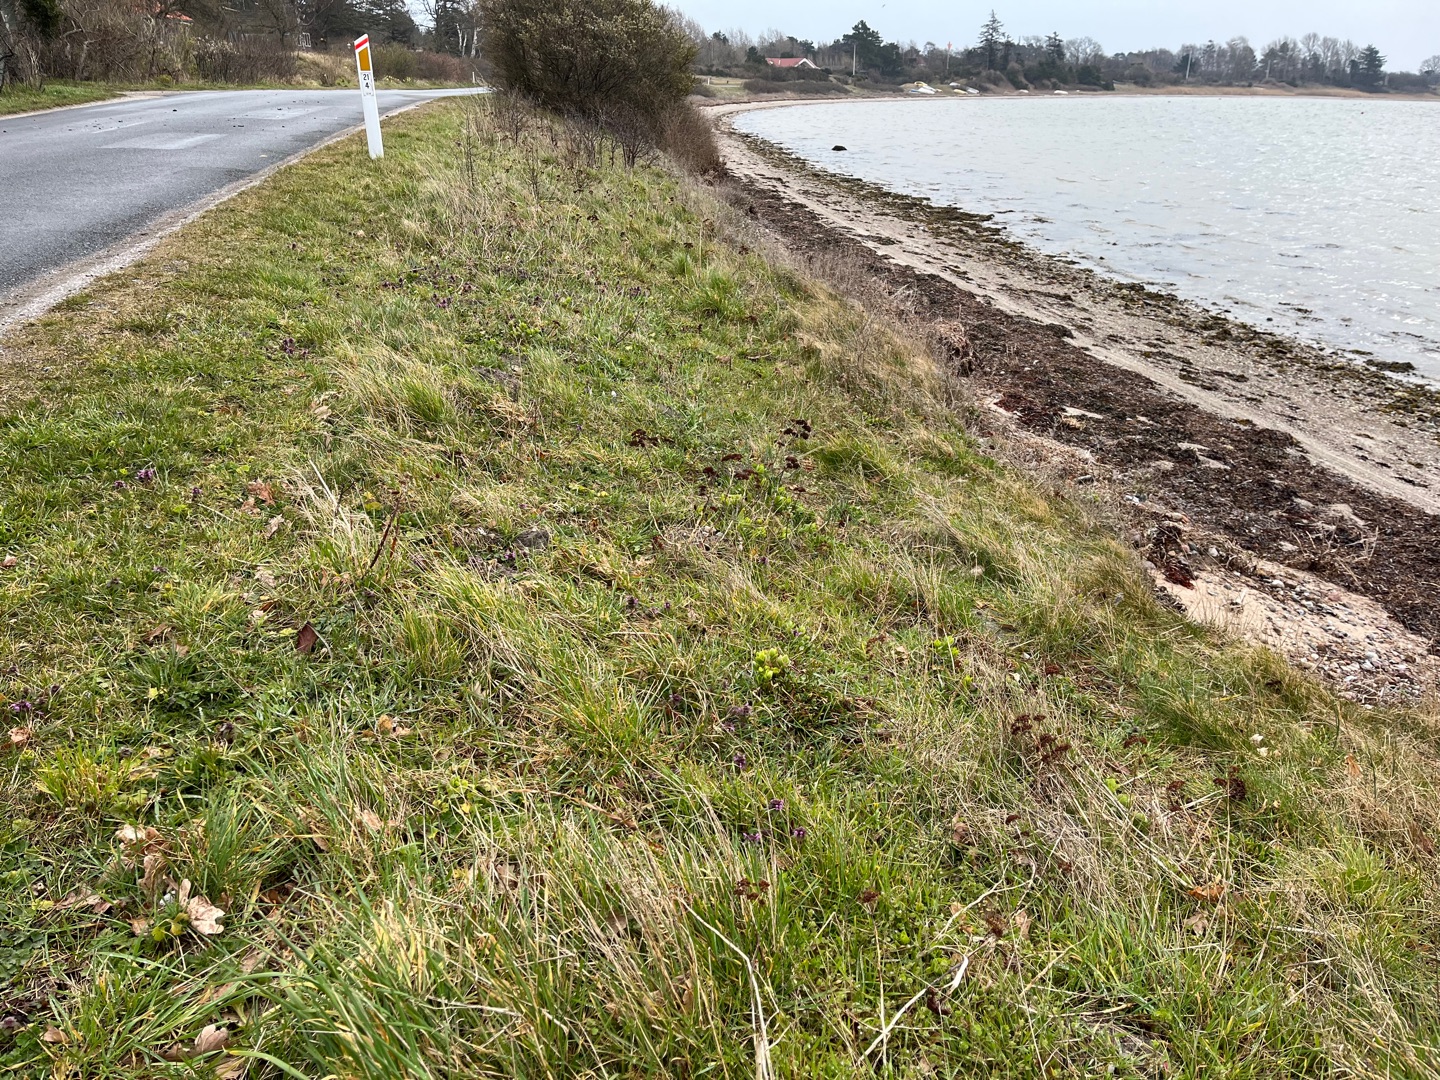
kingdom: Plantae
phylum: Tracheophyta
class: Liliopsida
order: Liliales
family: Liliaceae
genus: Gagea
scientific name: Gagea pratensis
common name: Eng-guldstjerne
